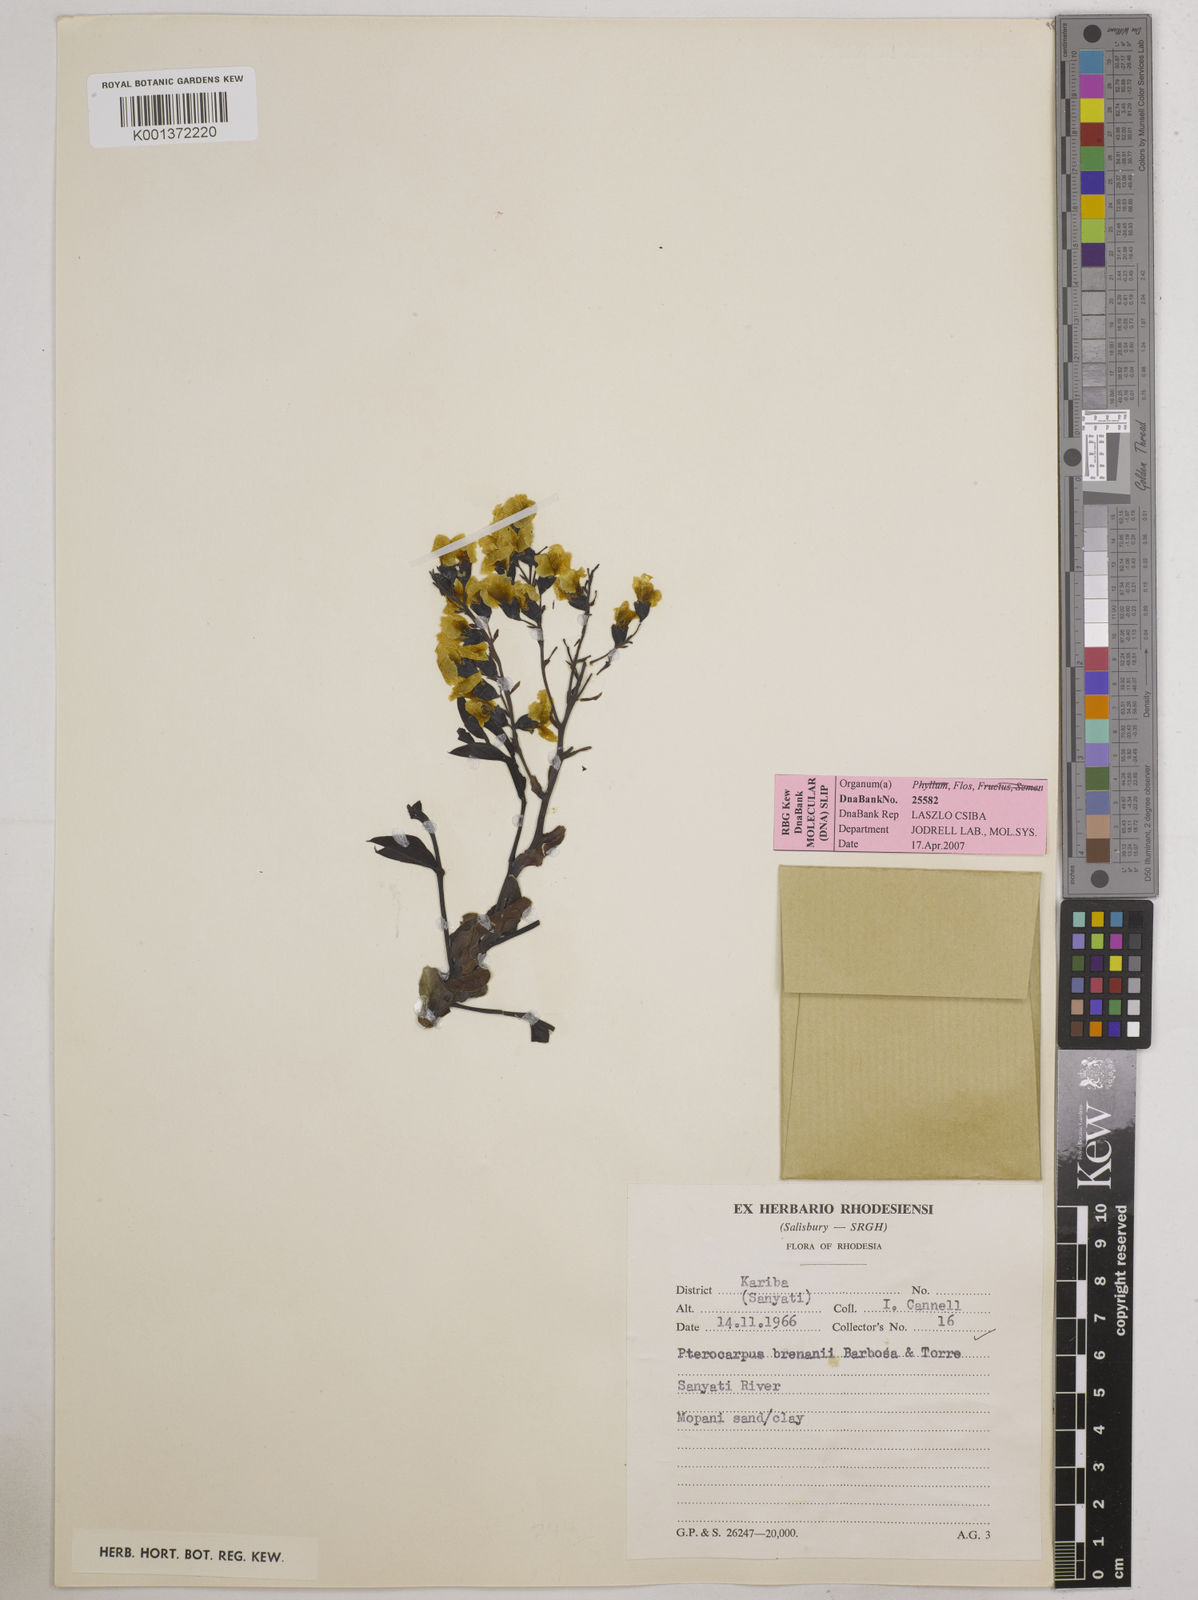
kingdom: Plantae
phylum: Tracheophyta
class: Magnoliopsida
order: Fabales
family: Fabaceae
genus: Pterocarpus
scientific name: Pterocarpus brenanii
